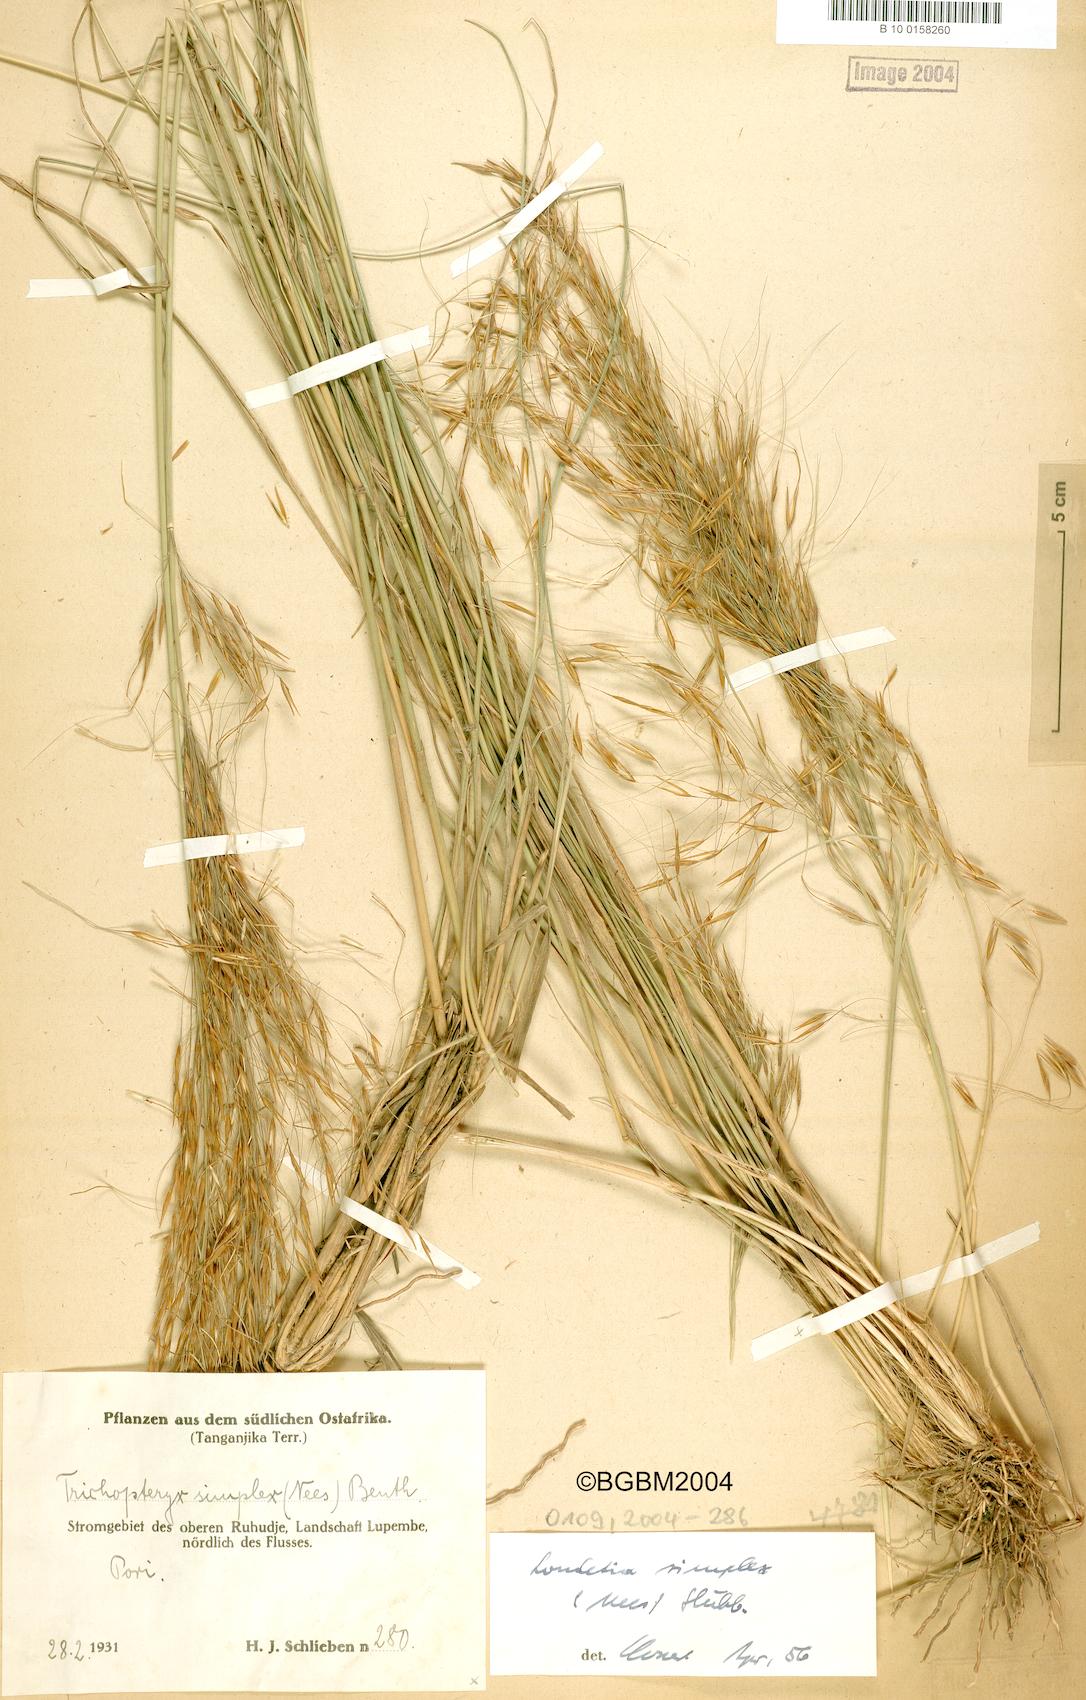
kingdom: Plantae
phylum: Tracheophyta
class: Liliopsida
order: Poales
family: Poaceae
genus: Loudetia
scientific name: Loudetia simplex
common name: Common russet grass
